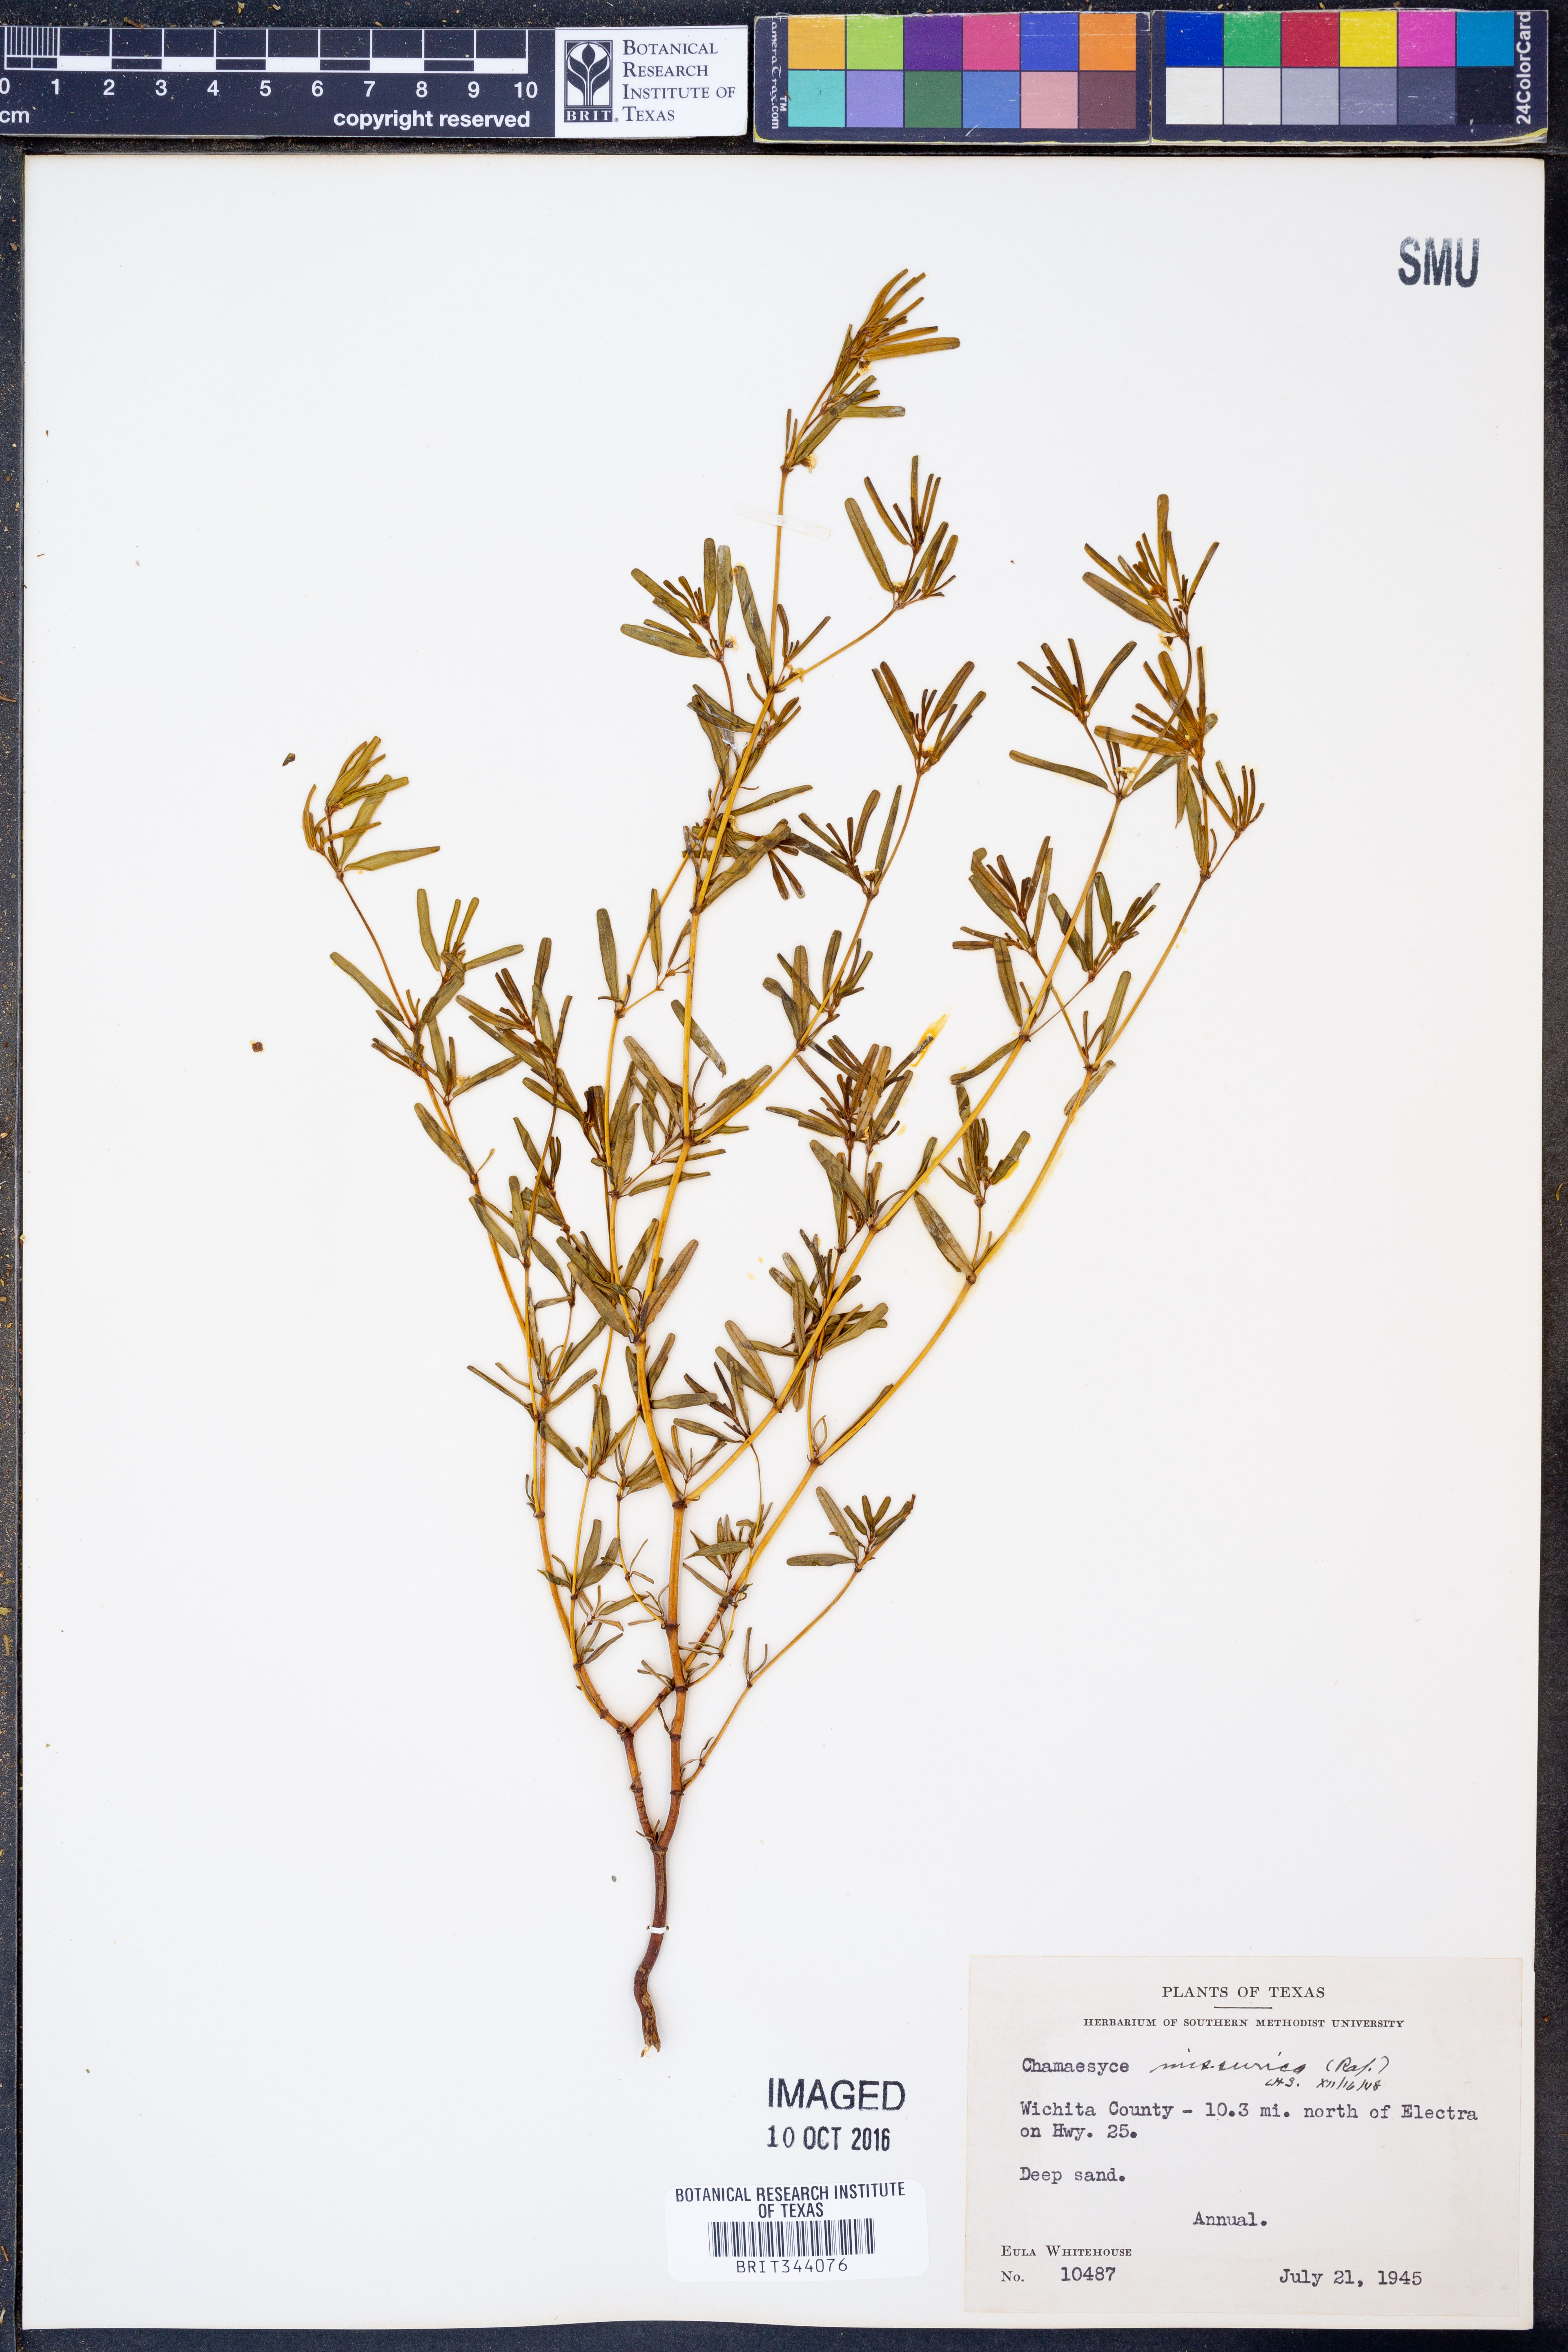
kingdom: Plantae
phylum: Tracheophyta
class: Magnoliopsida
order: Malpighiales
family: Euphorbiaceae
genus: Euphorbia
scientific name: Euphorbia missurica
